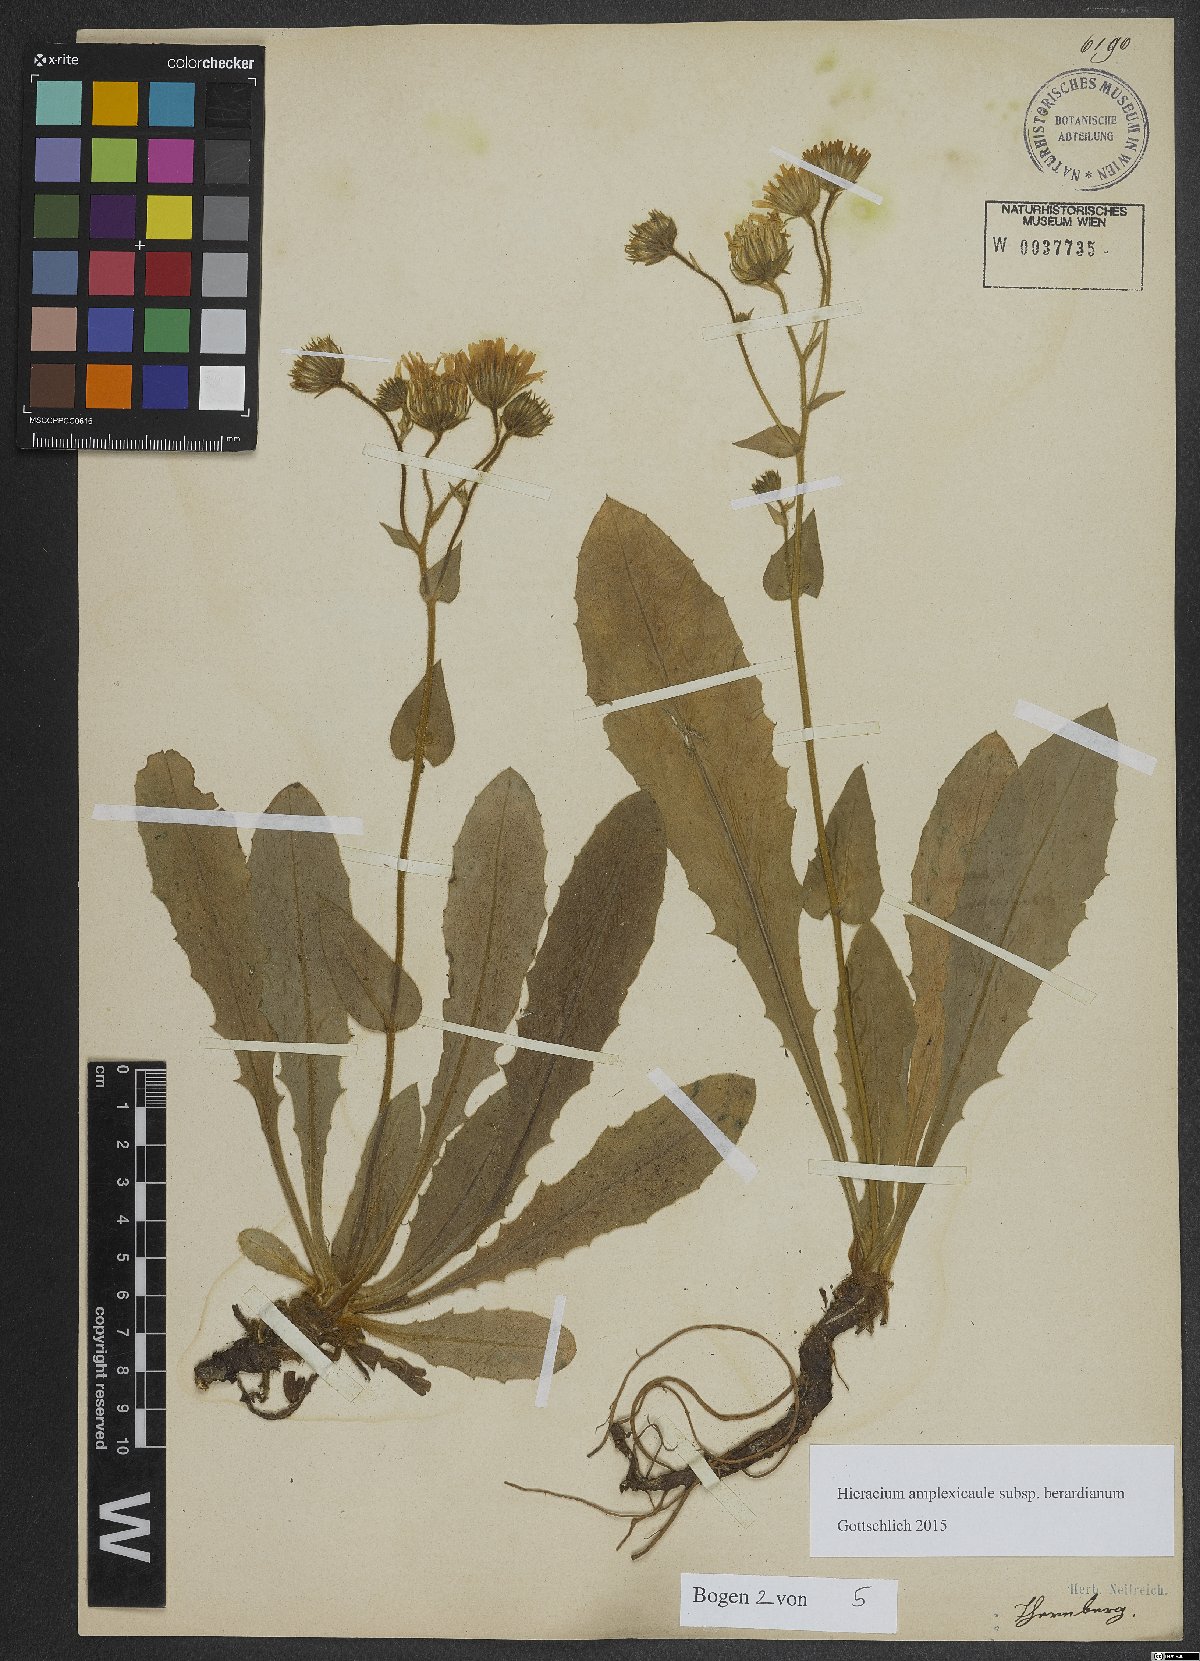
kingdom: Plantae
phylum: Tracheophyta
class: Magnoliopsida
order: Asterales
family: Asteraceae
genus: Hieracium
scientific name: Hieracium amplexicaule
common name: Sticky hawkweed
